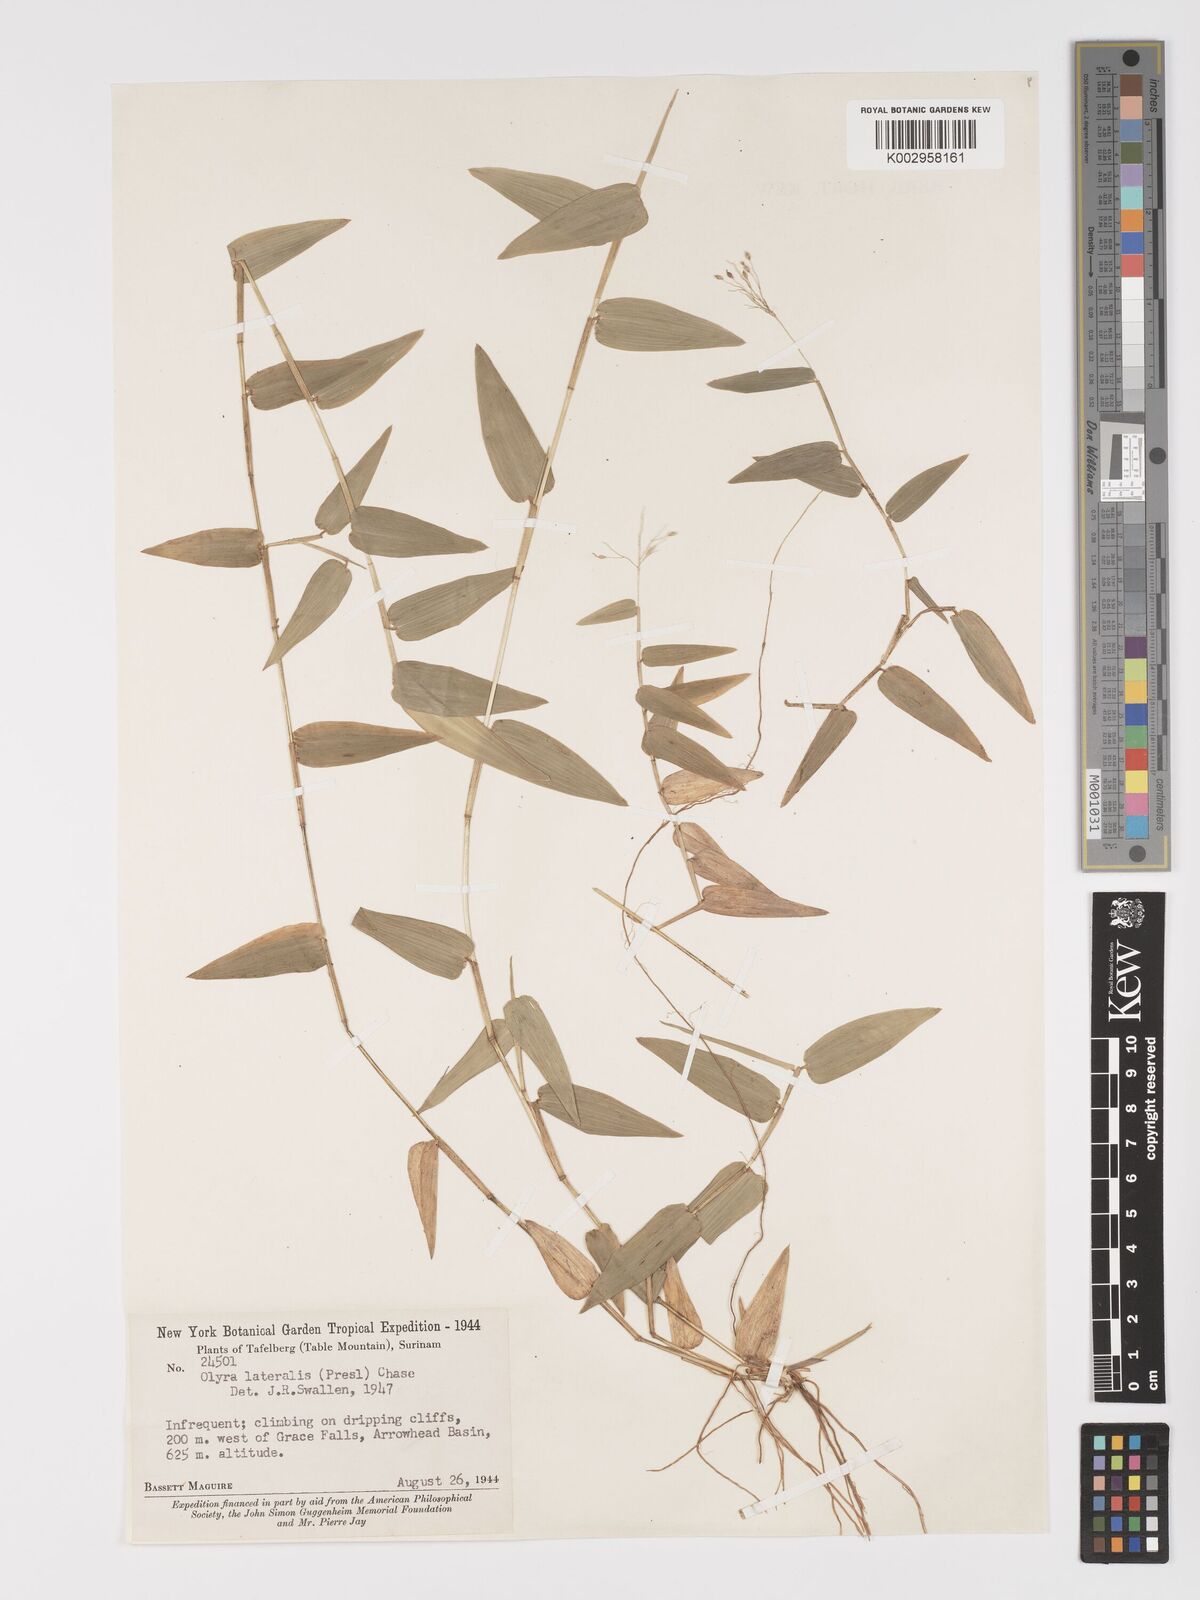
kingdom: Plantae
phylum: Tracheophyta
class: Liliopsida
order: Poales
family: Poaceae
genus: Parodiolyra
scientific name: Parodiolyra lateralis
